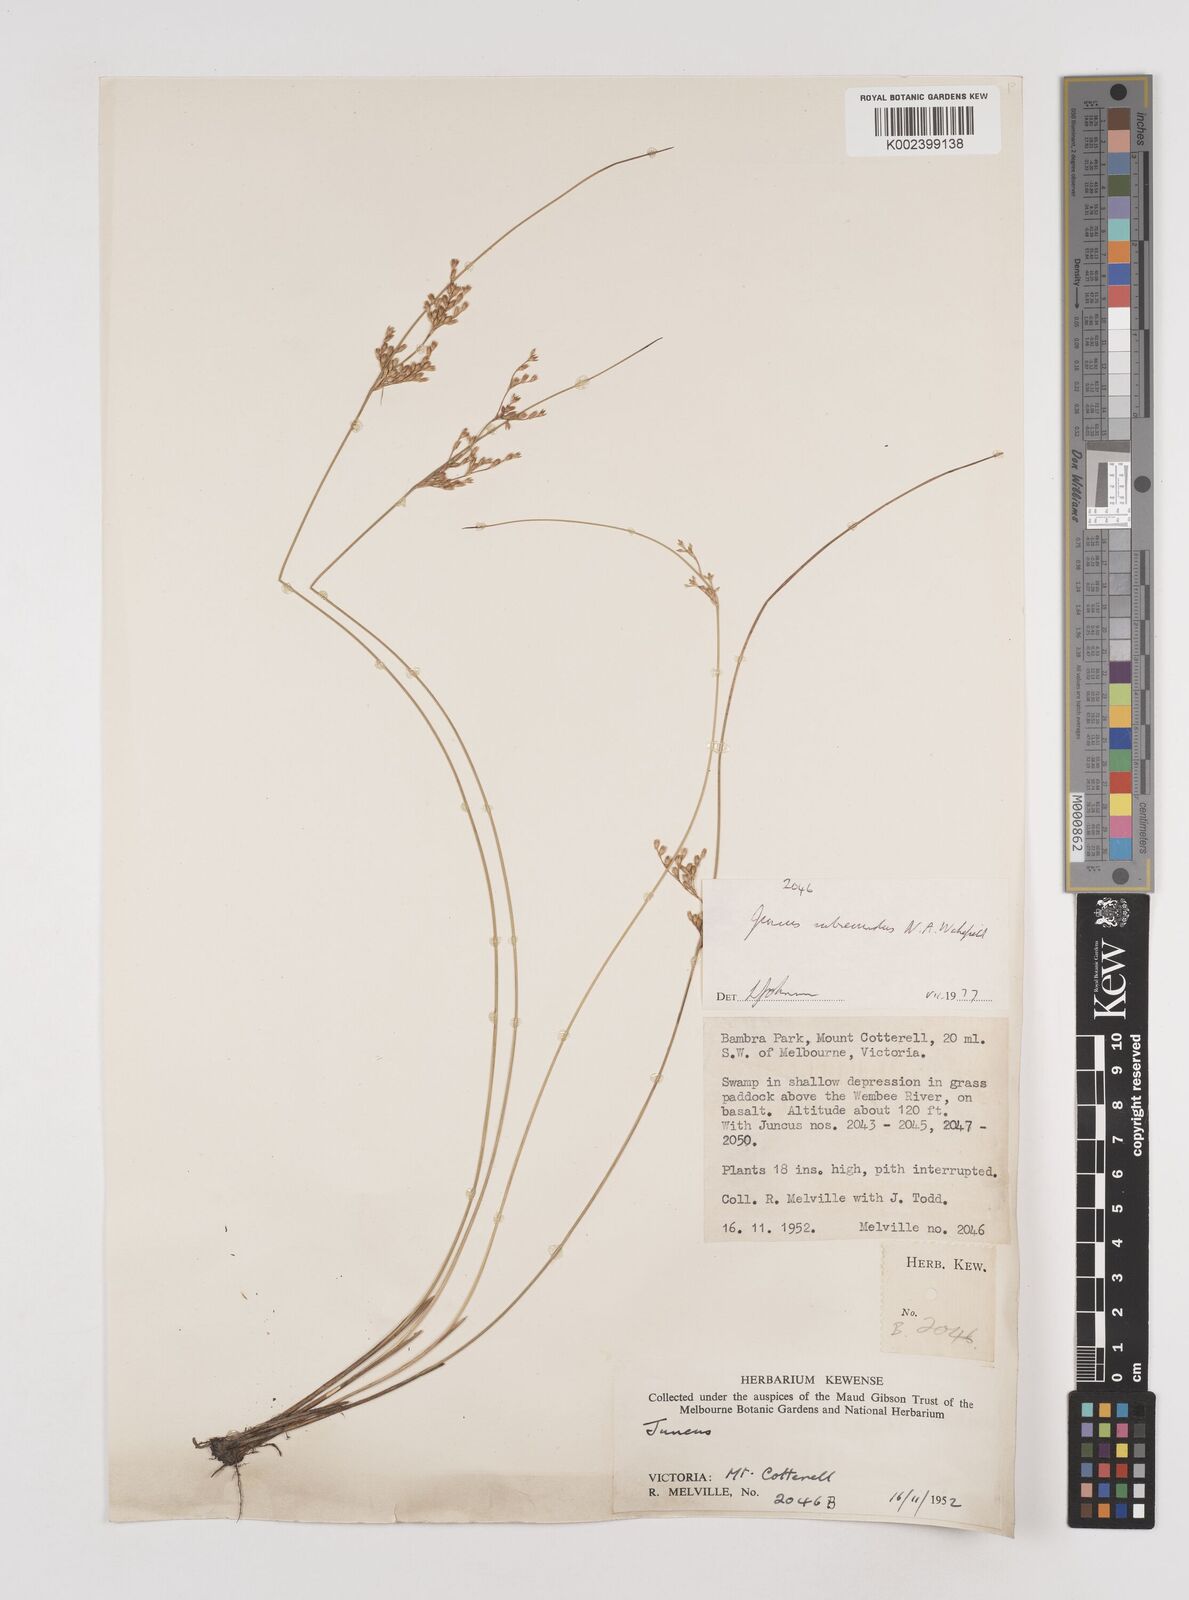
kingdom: Plantae
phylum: Tracheophyta
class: Liliopsida
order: Poales
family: Juncaceae
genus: Juncus
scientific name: Juncus subsecundus
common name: Fingered rush
